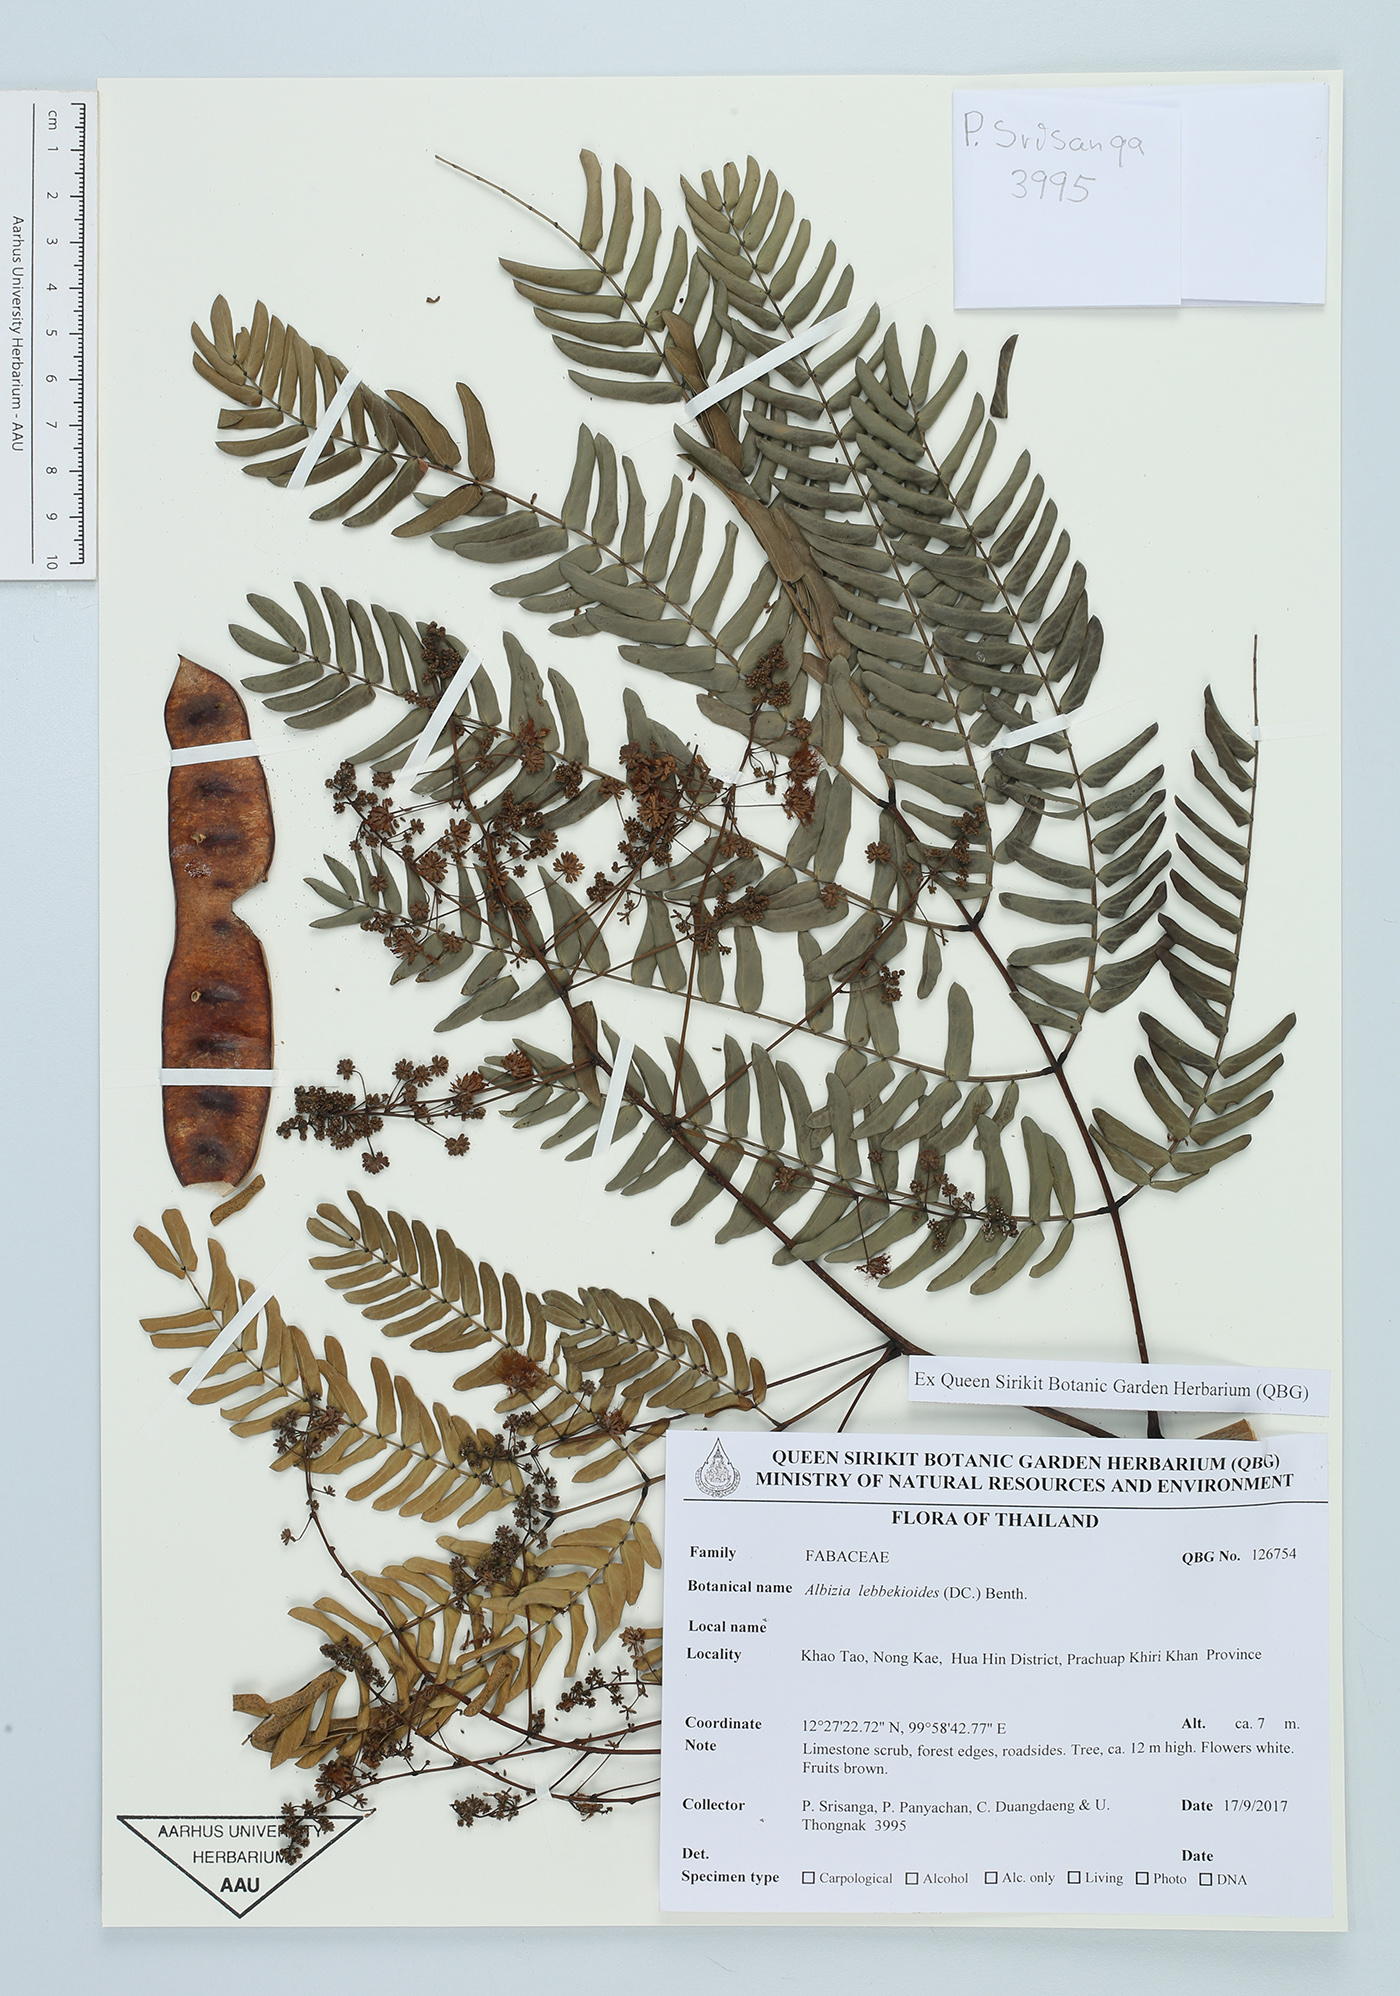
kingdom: Plantae
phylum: Tracheophyta
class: Magnoliopsida
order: Fabales
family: Fabaceae
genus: Albizia
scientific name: Albizia lebbekoides
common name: Indian albizia
